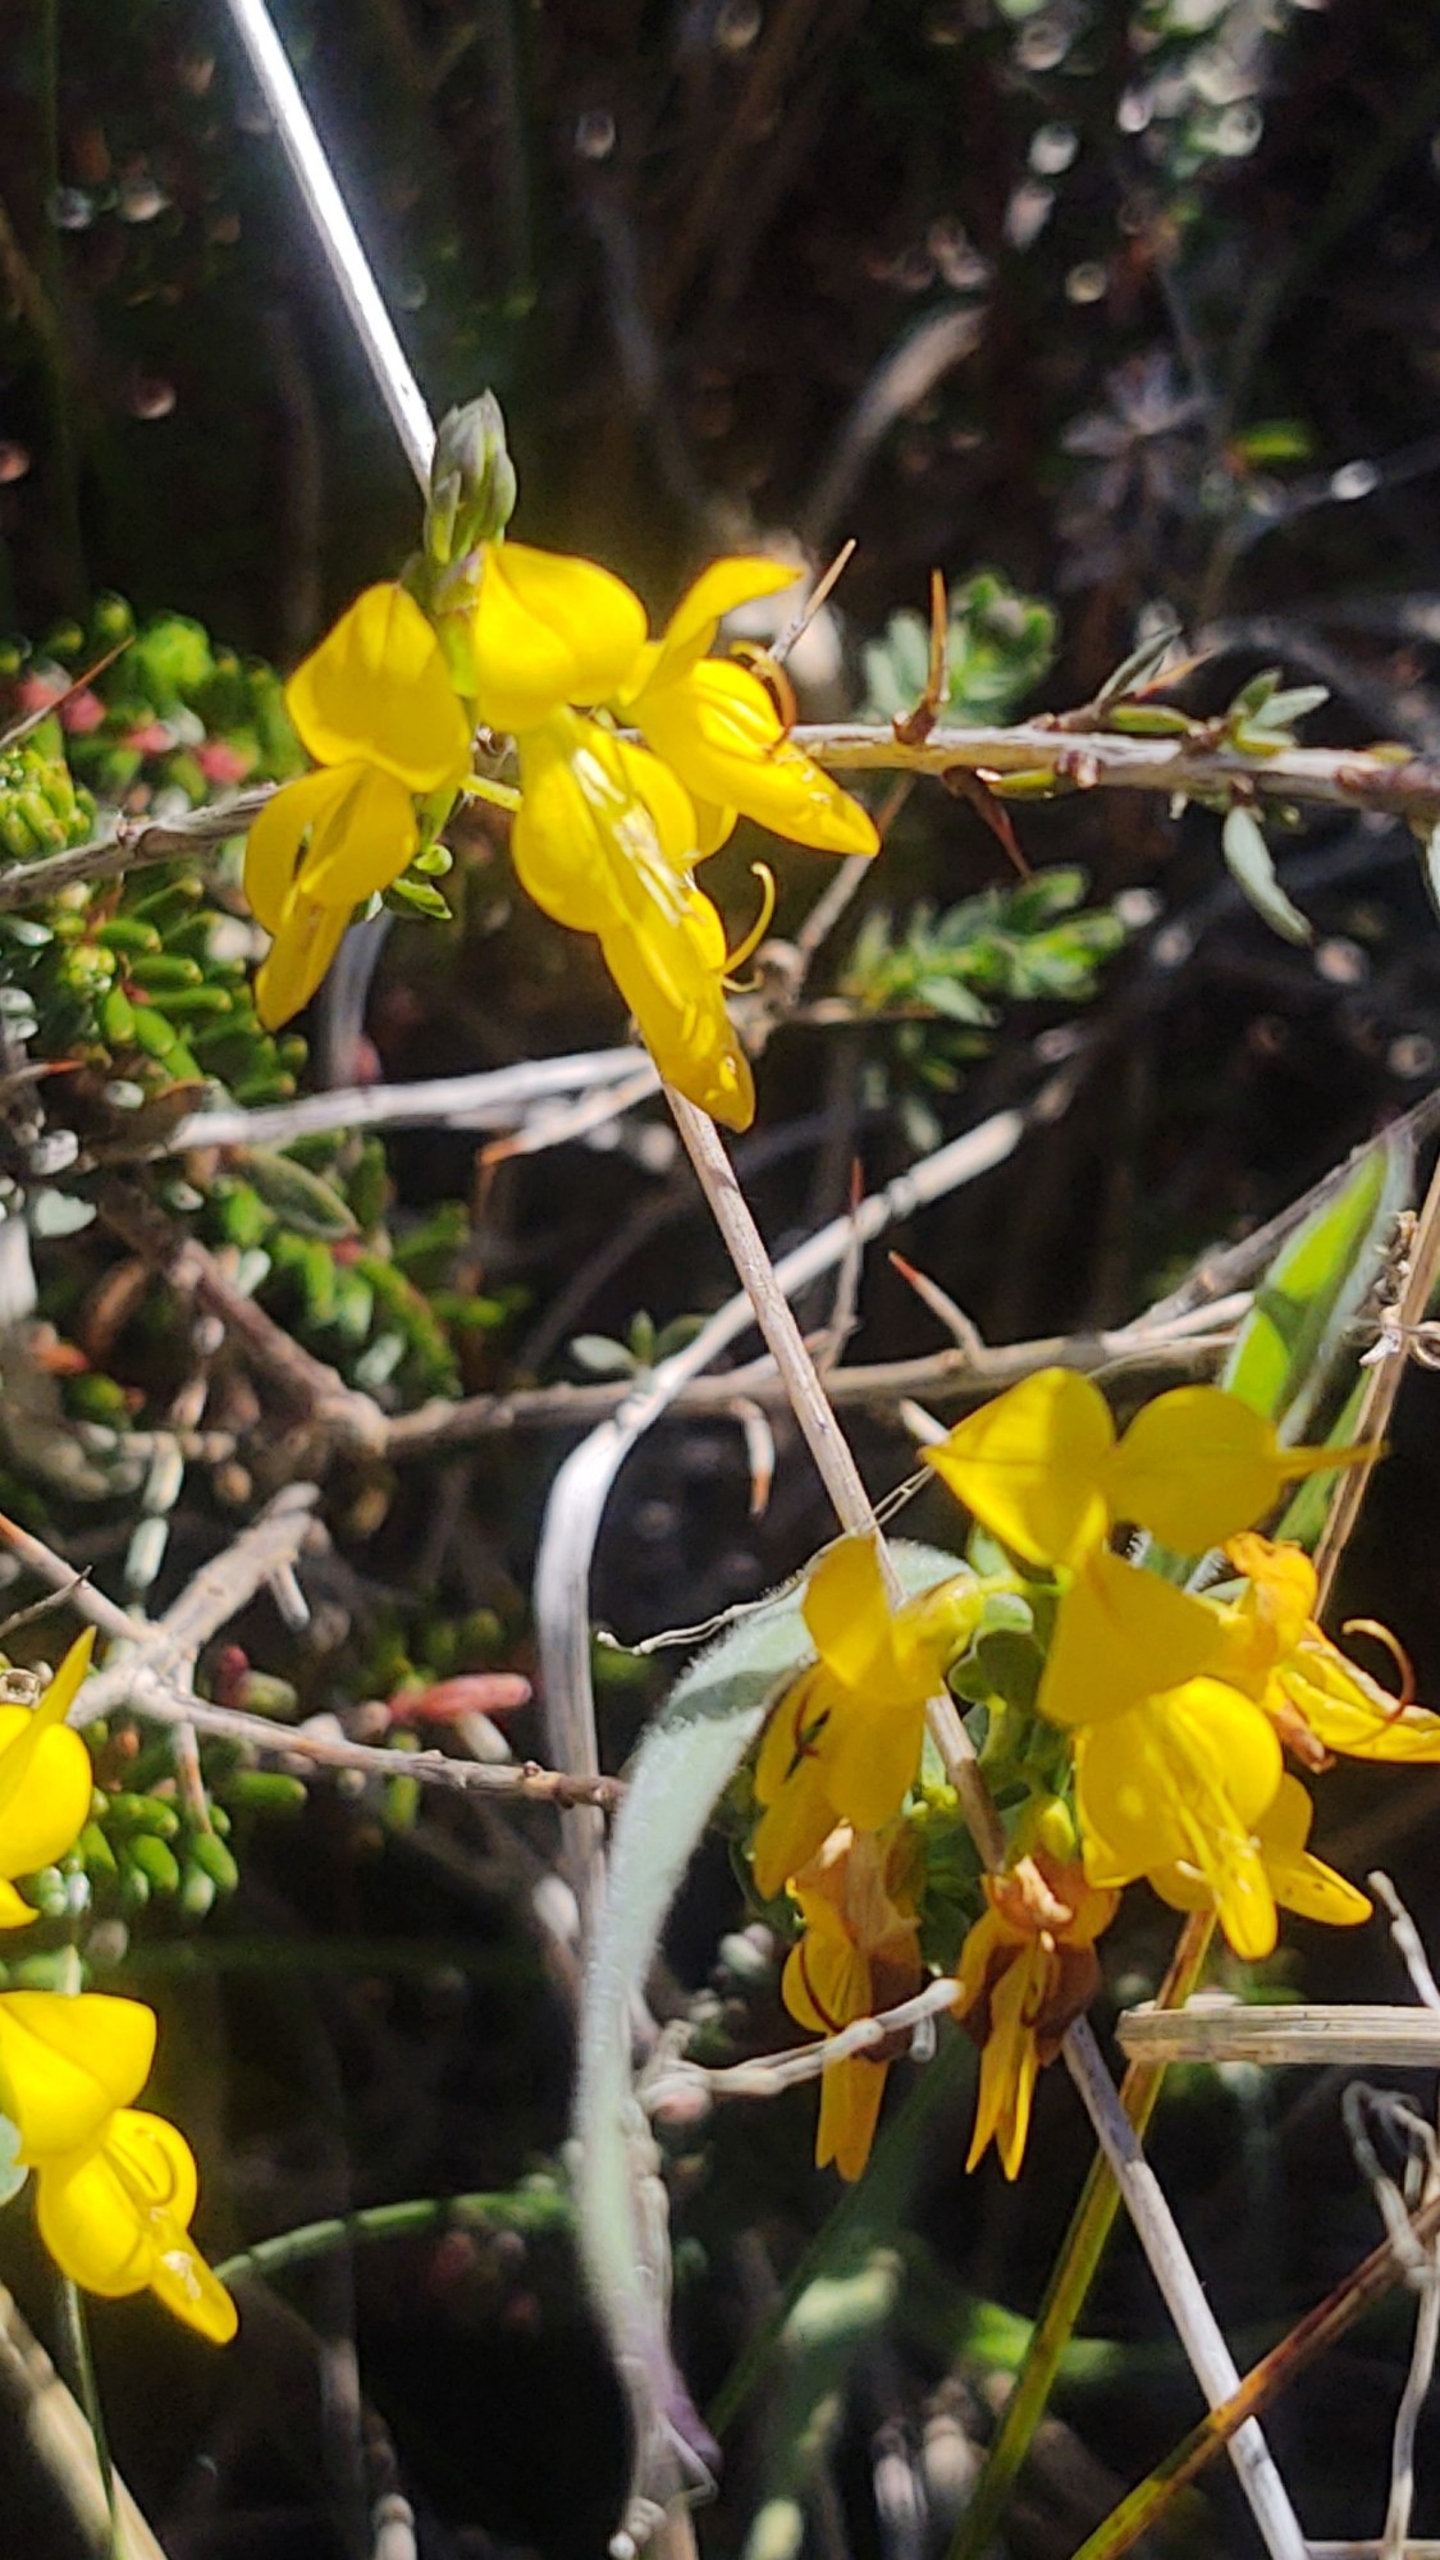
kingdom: Plantae
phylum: Tracheophyta
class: Magnoliopsida
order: Fabales
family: Fabaceae
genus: Genista
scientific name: Genista anglica
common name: Engelsk visse
